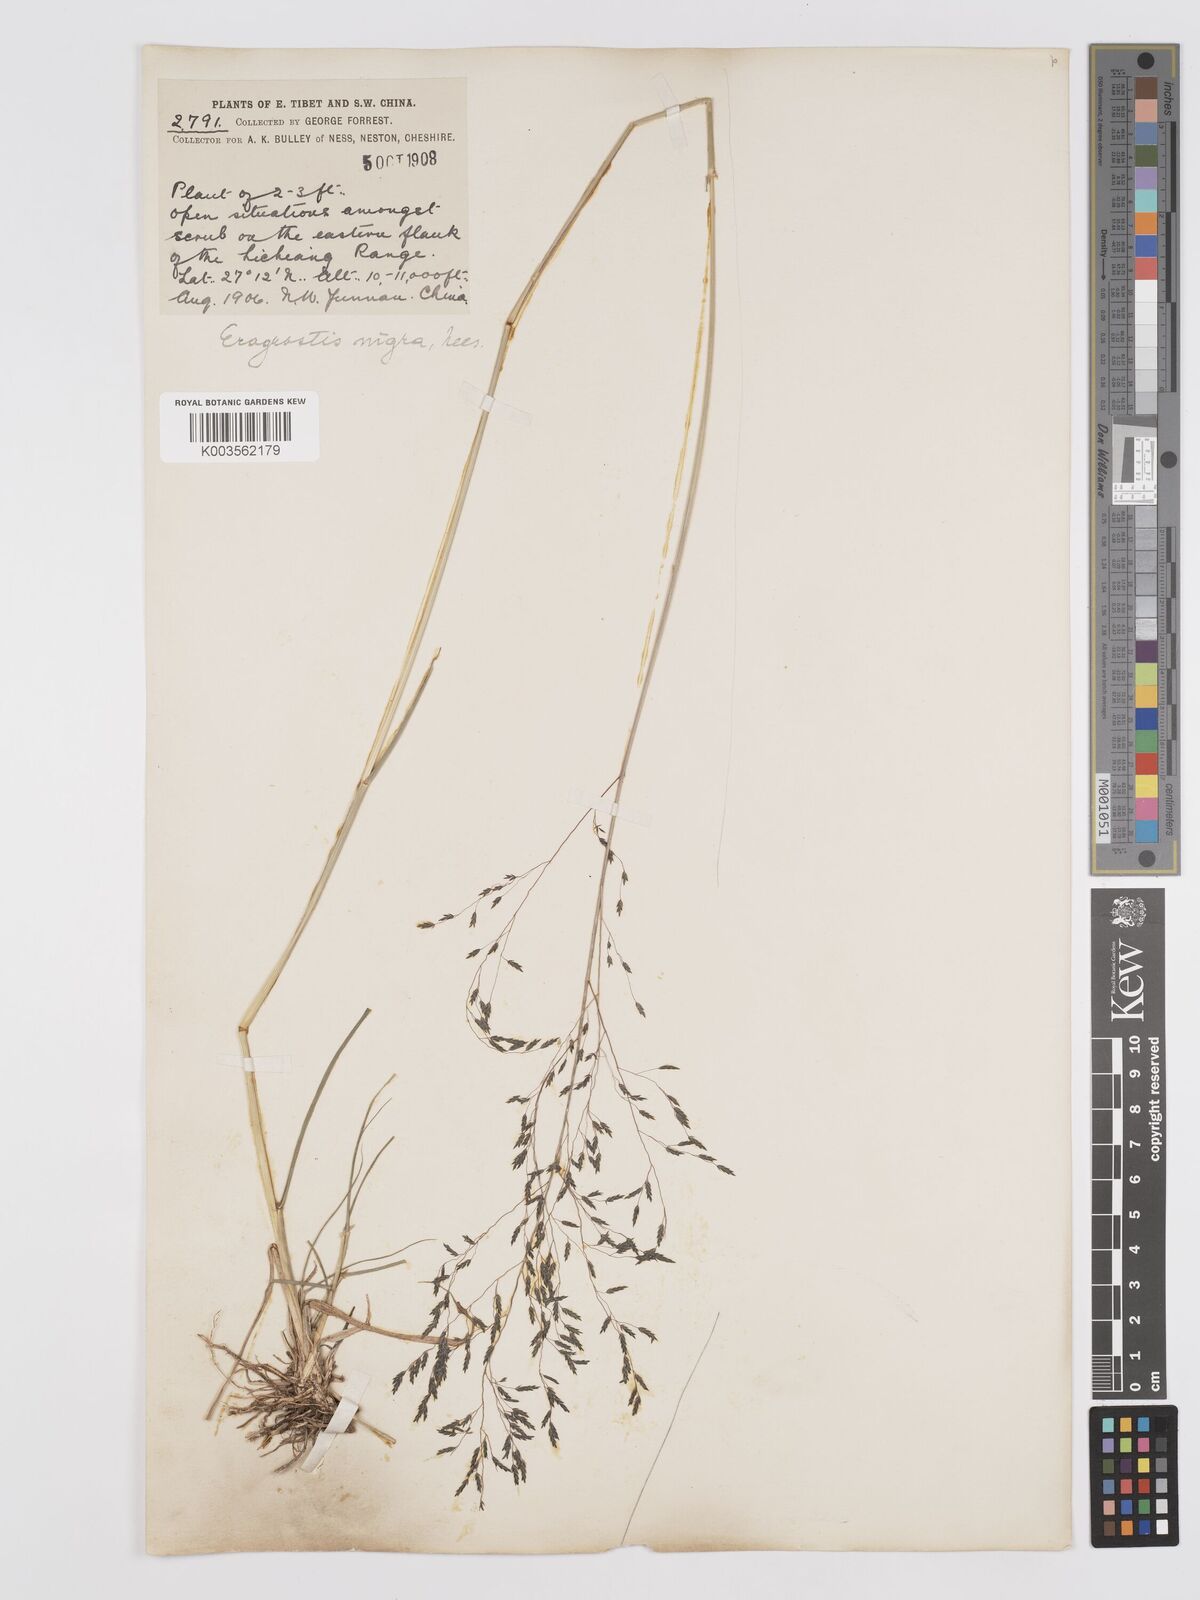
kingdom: Plantae
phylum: Tracheophyta
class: Liliopsida
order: Poales
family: Poaceae
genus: Eragrostis
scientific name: Eragrostis nigra
